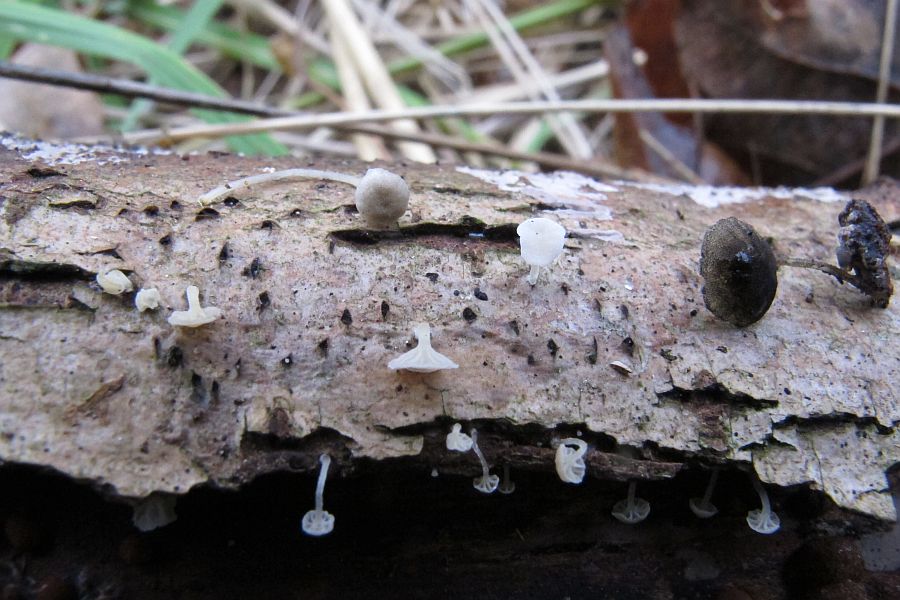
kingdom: Fungi
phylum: Basidiomycota
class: Agaricomycetes
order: Agaricales
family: Porotheleaceae
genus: Phloeomana
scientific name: Phloeomana speirea
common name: kvist-huesvamp
